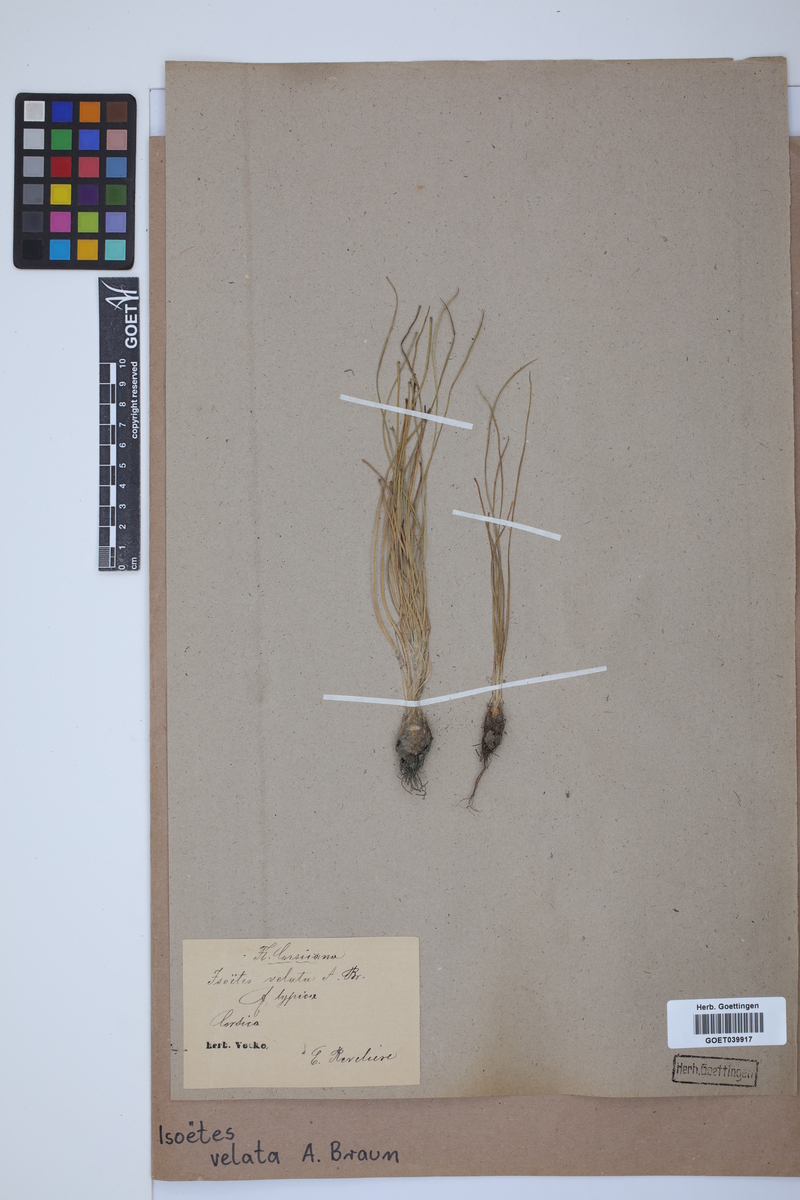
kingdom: Plantae
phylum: Tracheophyta
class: Lycopodiopsida
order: Isoetales
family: Isoetaceae
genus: Isoetes
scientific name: Isoetes longissima
